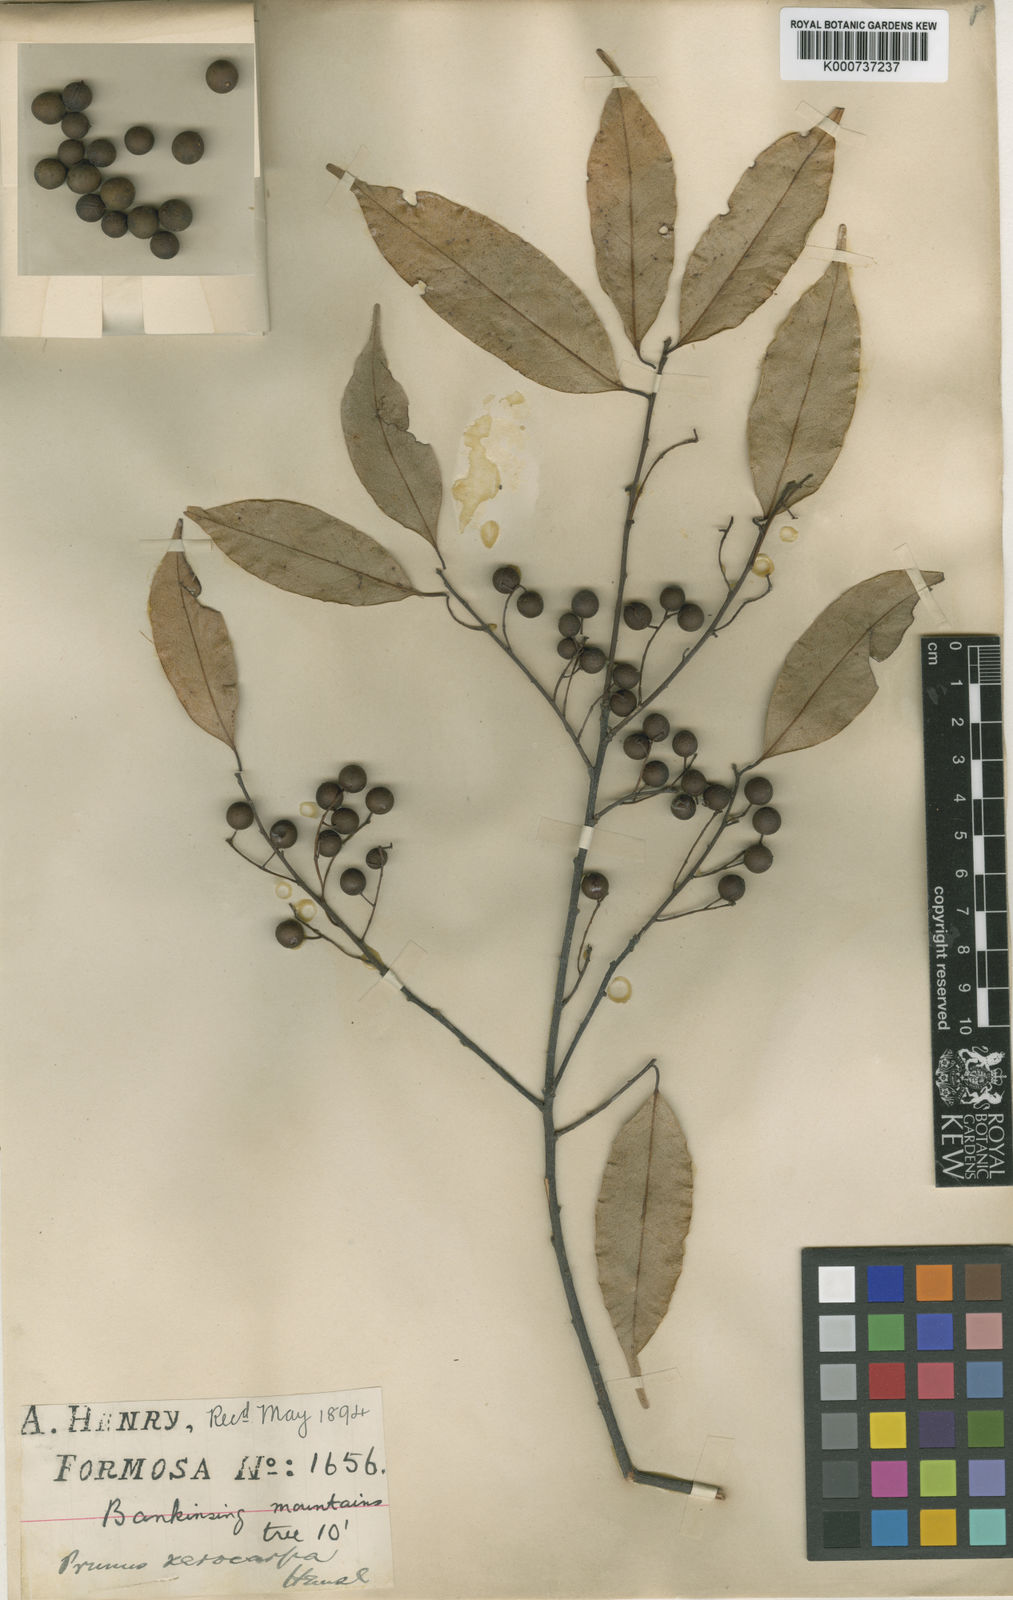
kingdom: Plantae
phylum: Tracheophyta
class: Magnoliopsida
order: Rosales
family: Rosaceae
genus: Prunus
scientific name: Prunus phaeosticta
